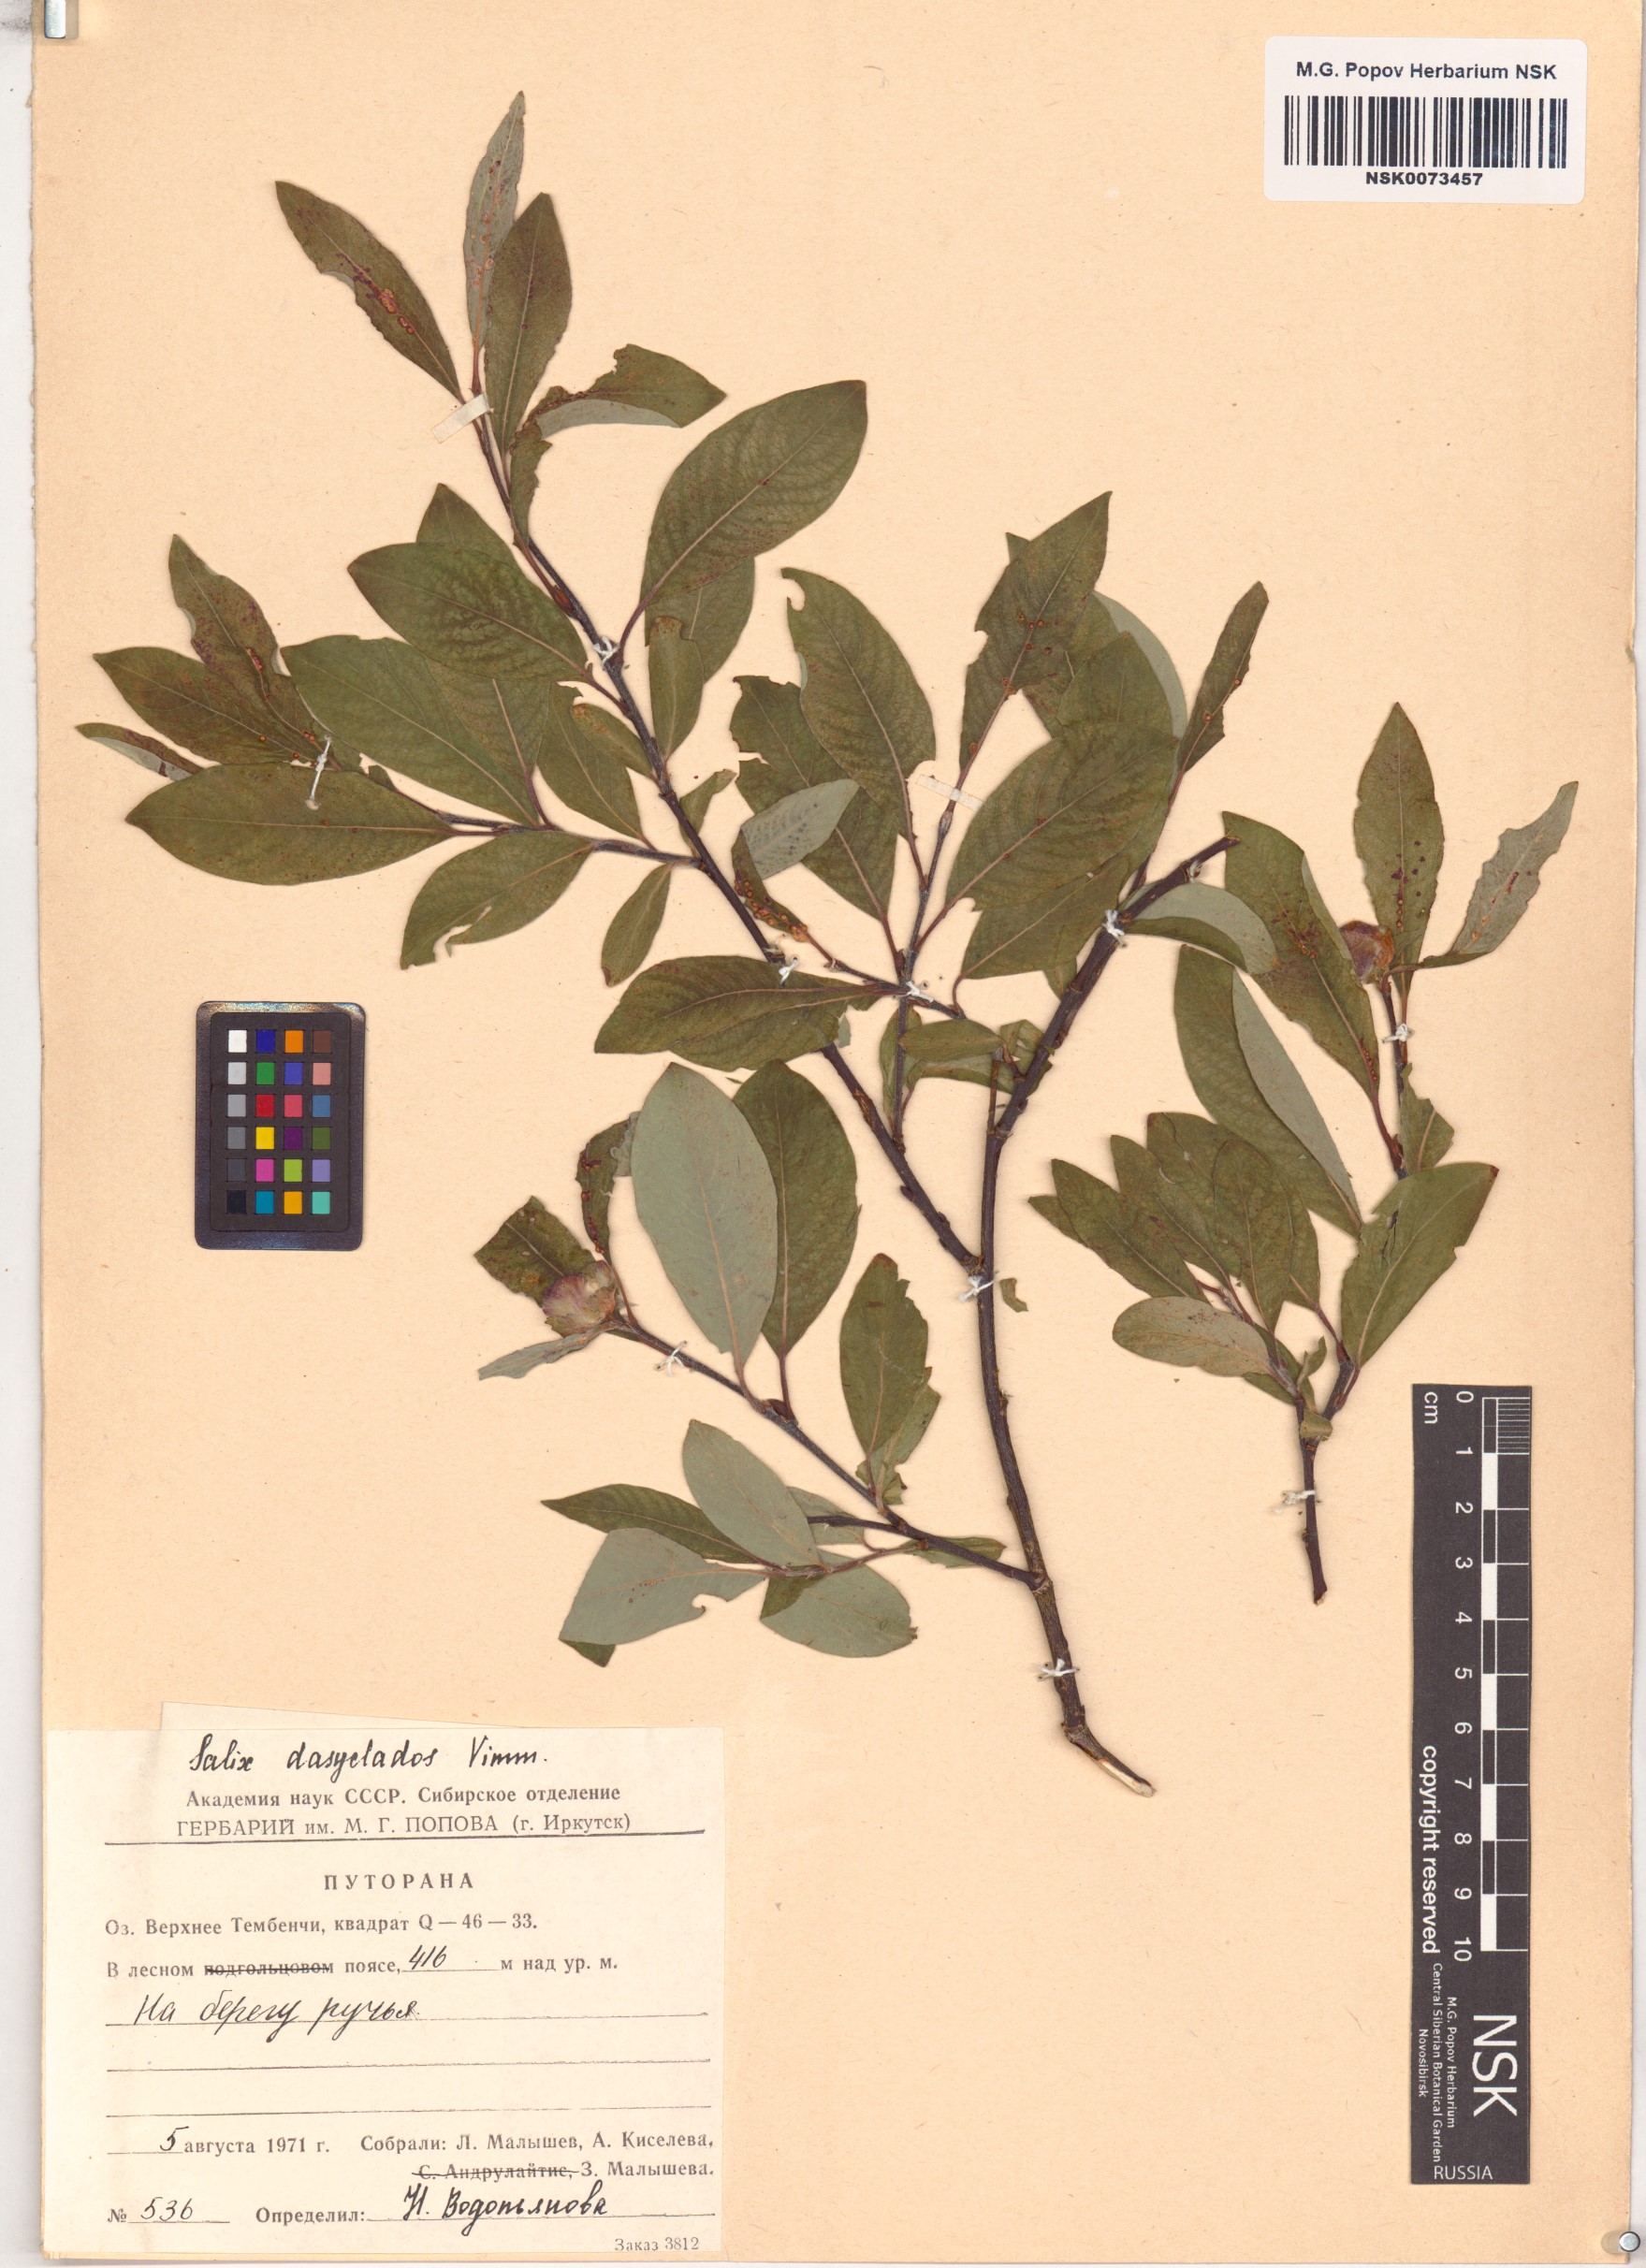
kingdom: Plantae
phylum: Tracheophyta
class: Magnoliopsida
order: Malpighiales
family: Salicaceae
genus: Salix
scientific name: Salix gmelinii
